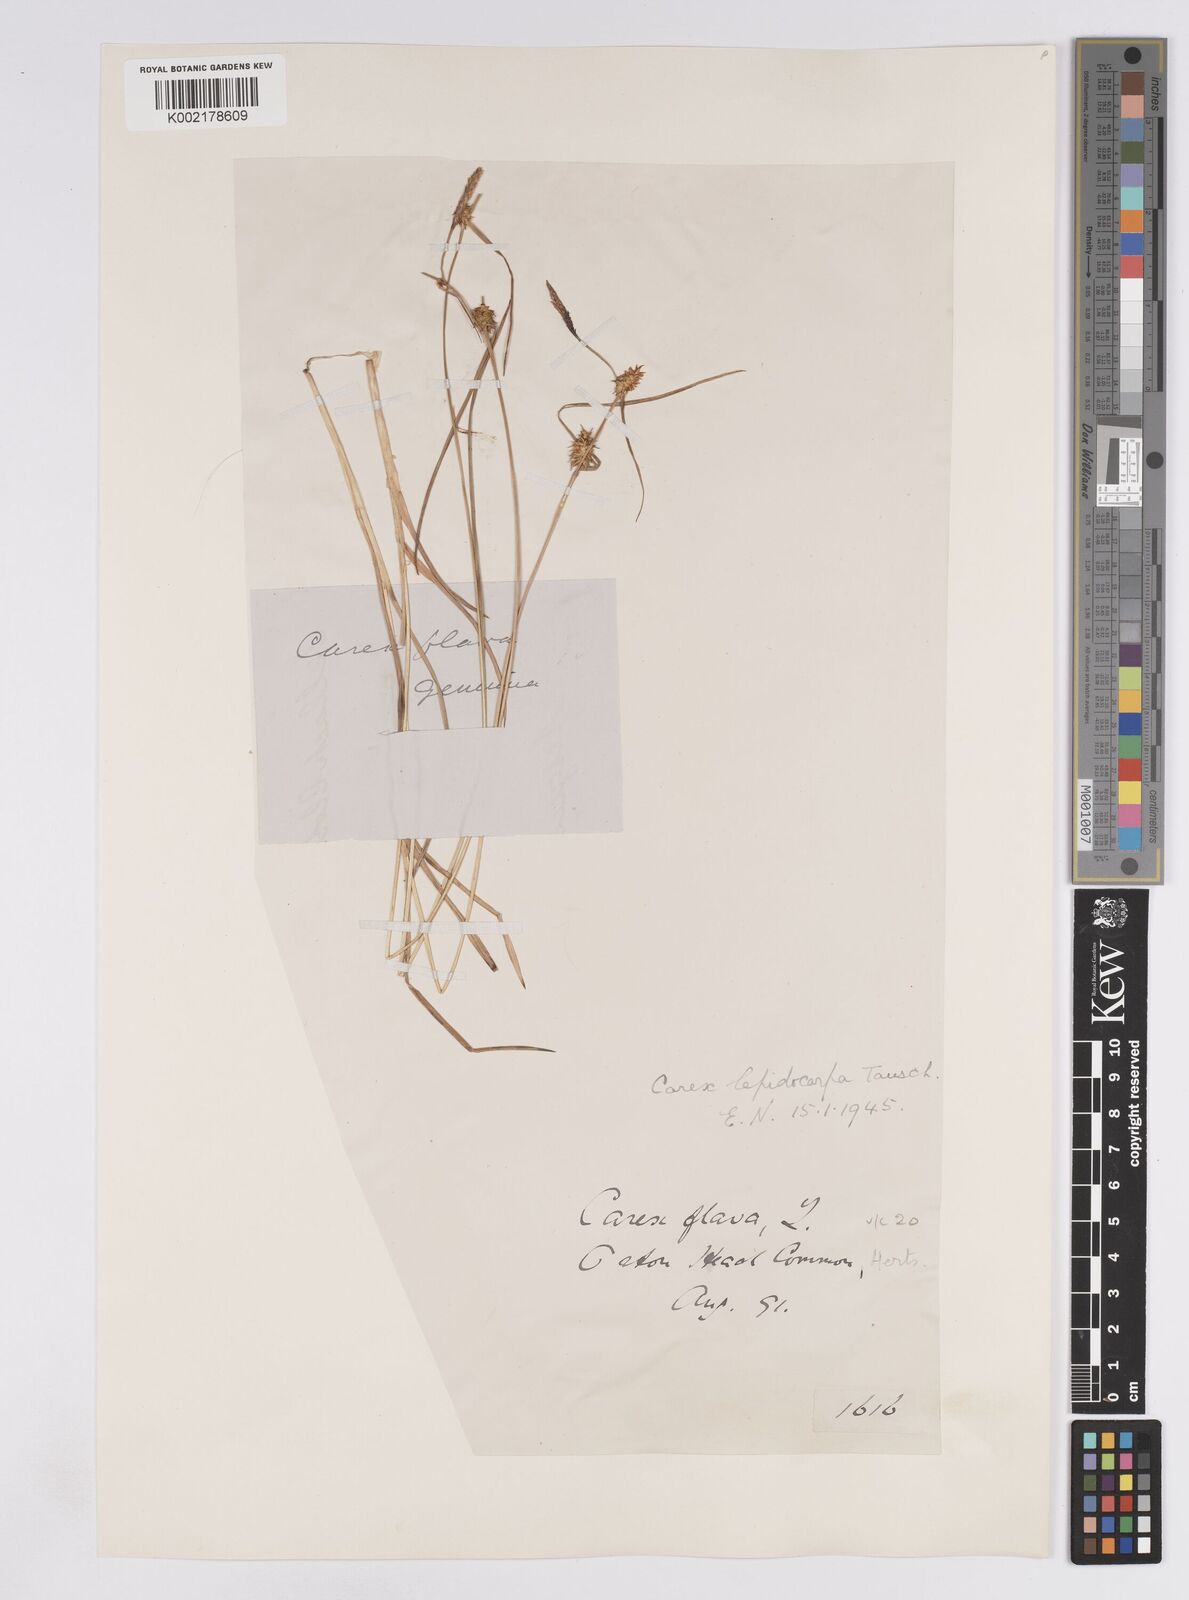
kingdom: Plantae
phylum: Tracheophyta
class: Liliopsida
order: Poales
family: Cyperaceae
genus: Carex
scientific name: Carex lepidocarpa
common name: Long-stalked yellow-sedge
